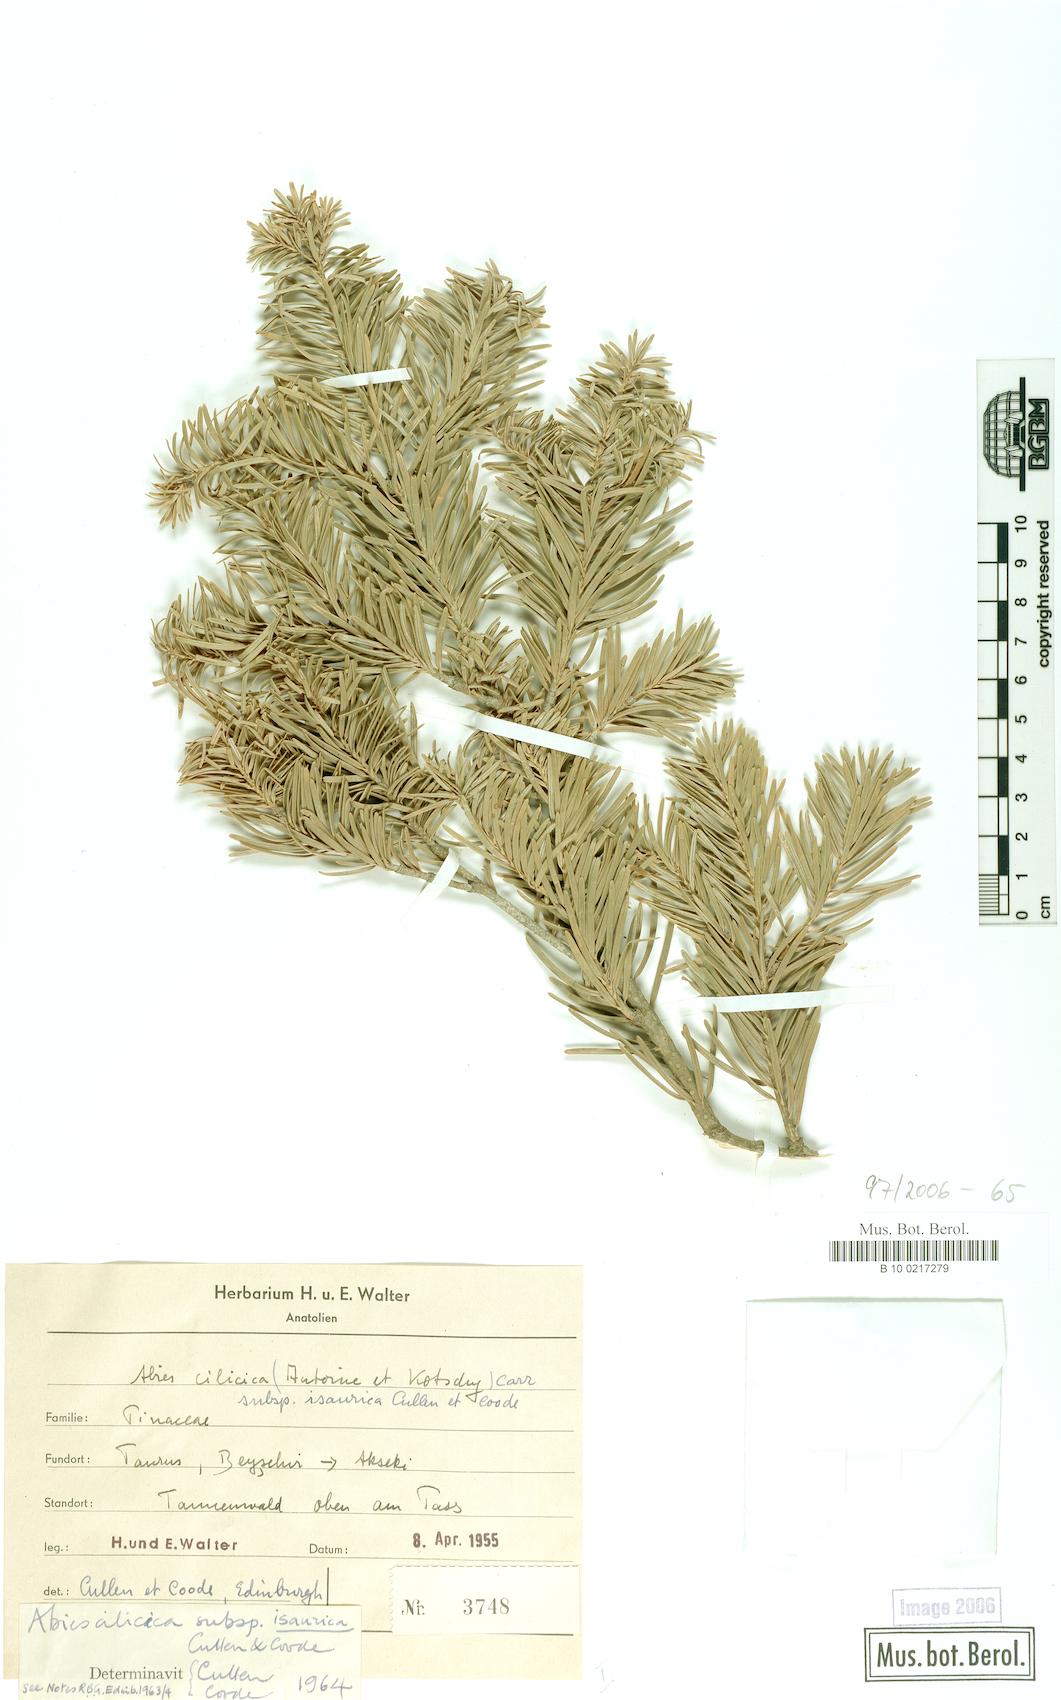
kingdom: Plantae
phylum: Tracheophyta
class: Pinopsida
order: Pinales
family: Pinaceae
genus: Abies
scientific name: Abies cilicica
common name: Cilician fir
